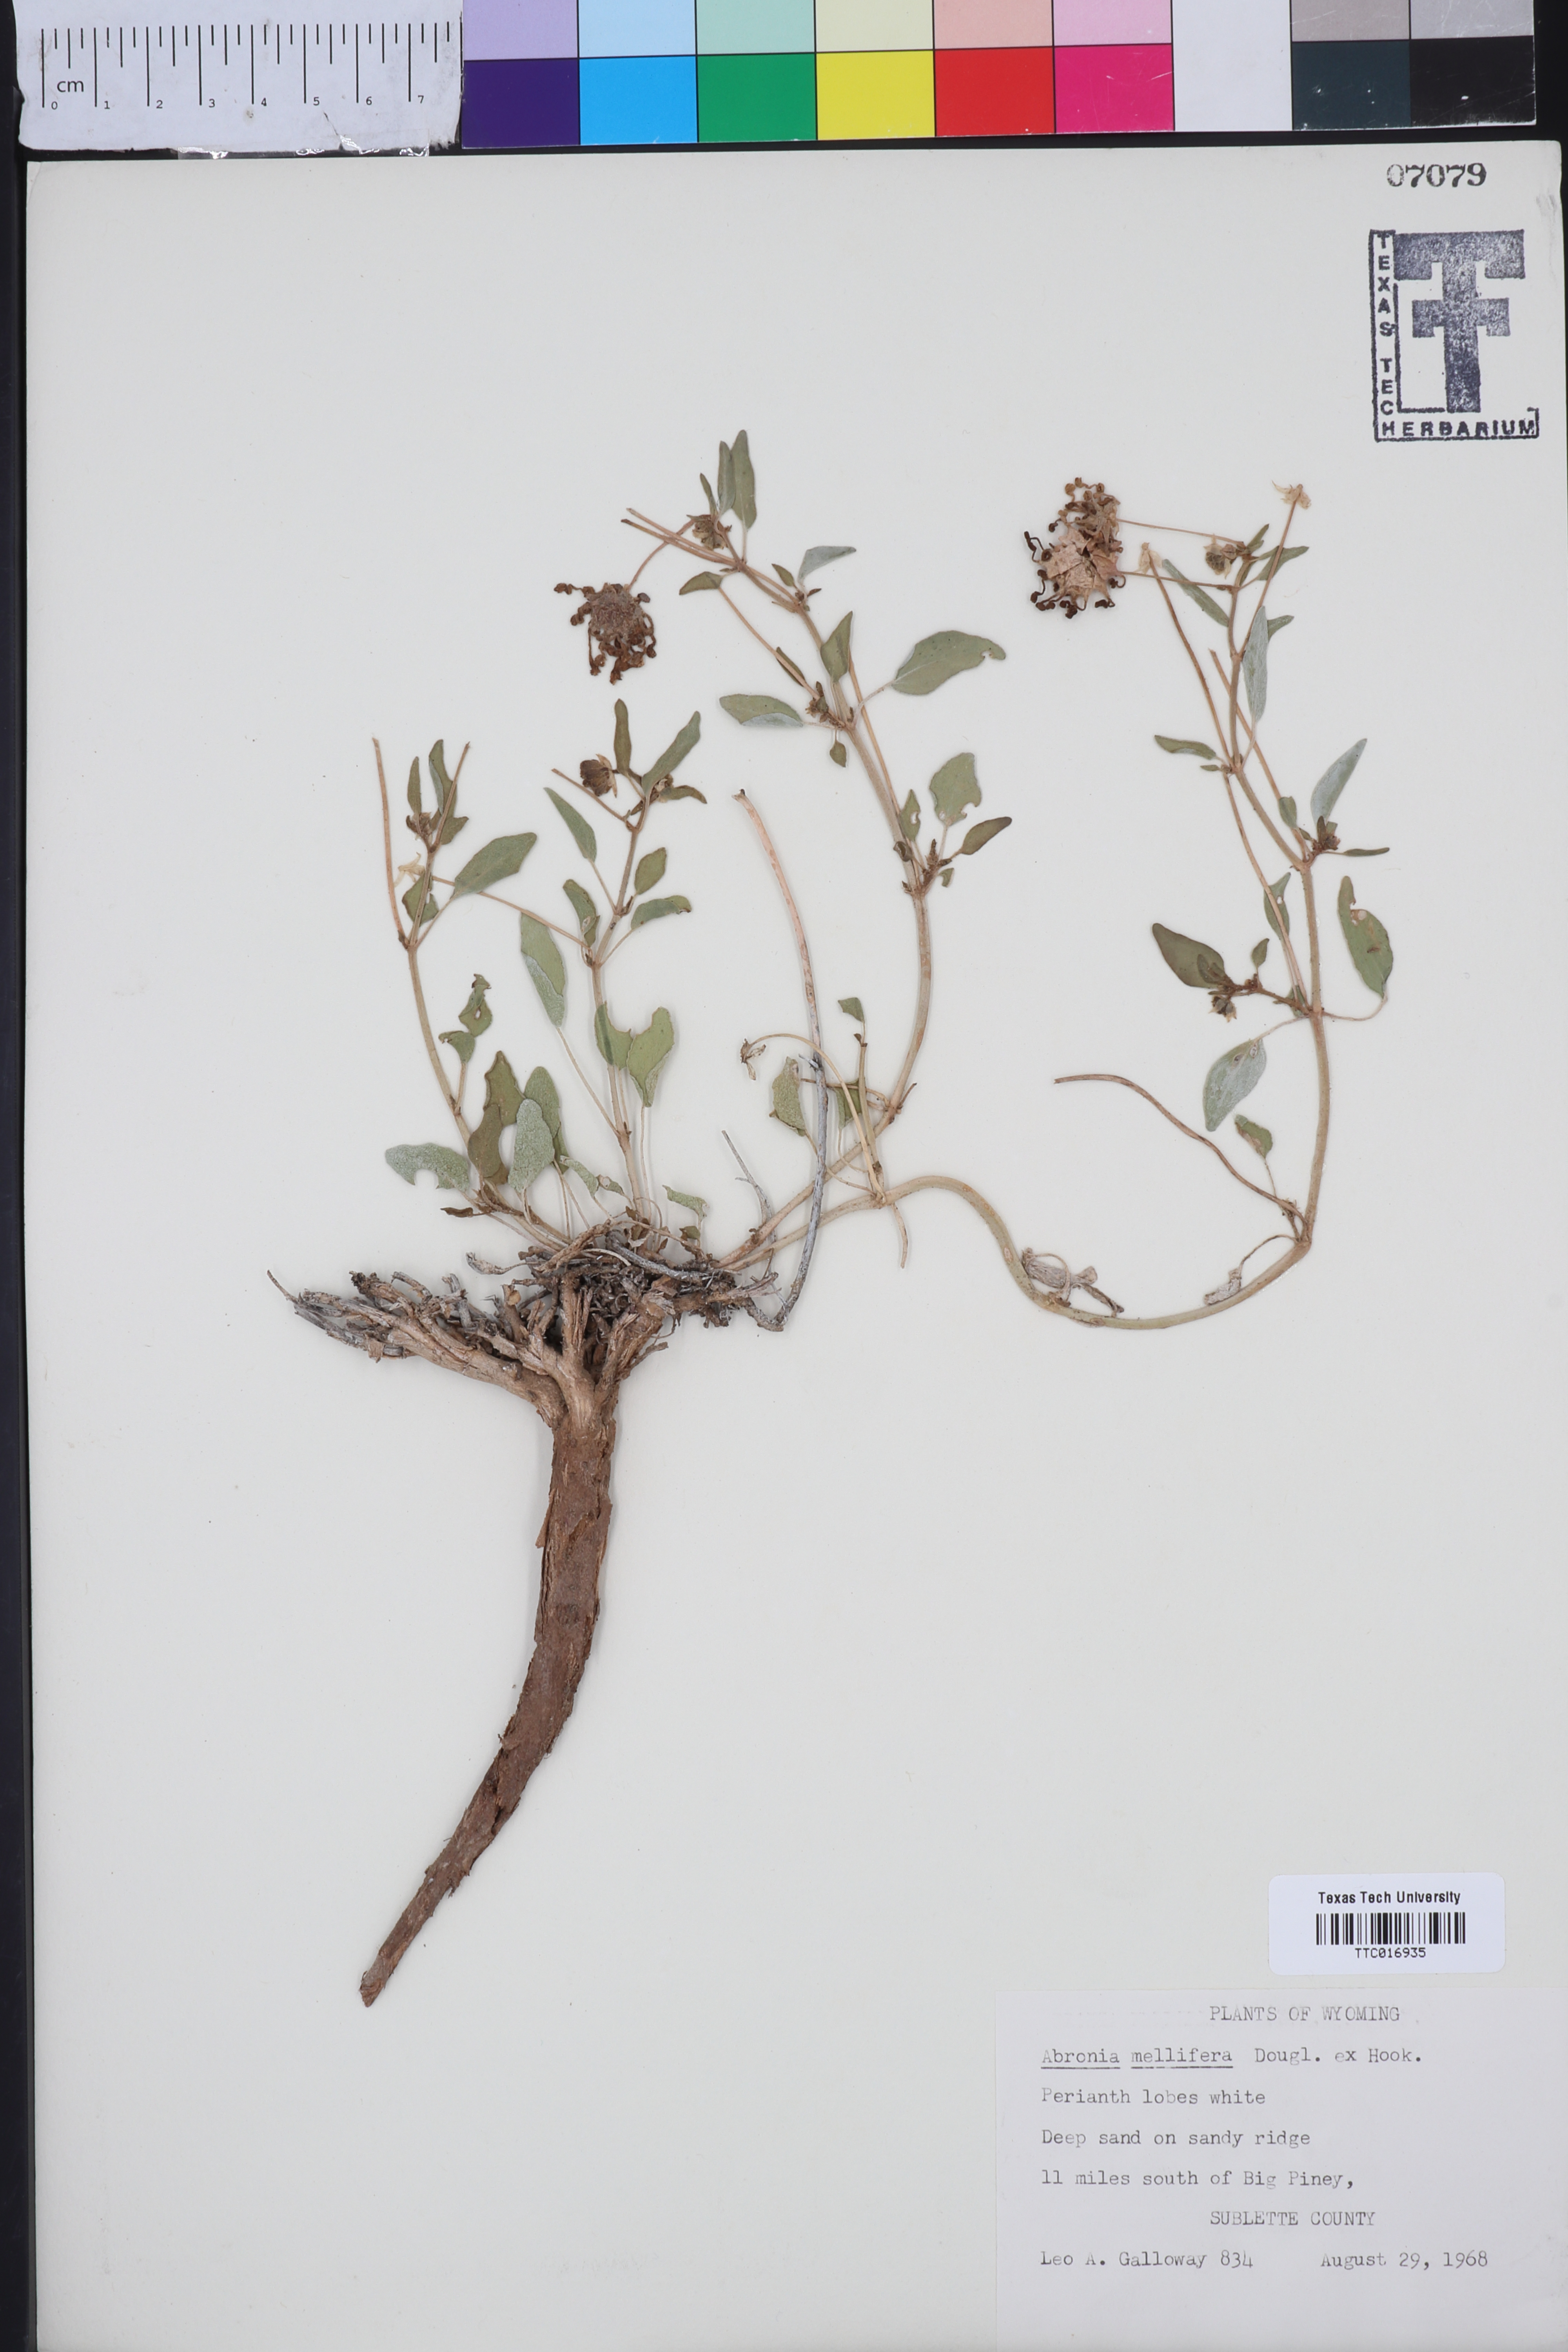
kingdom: Plantae
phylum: Tracheophyta
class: Magnoliopsida
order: Caryophyllales
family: Nyctaginaceae
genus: Abronia
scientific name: Abronia mellifera
